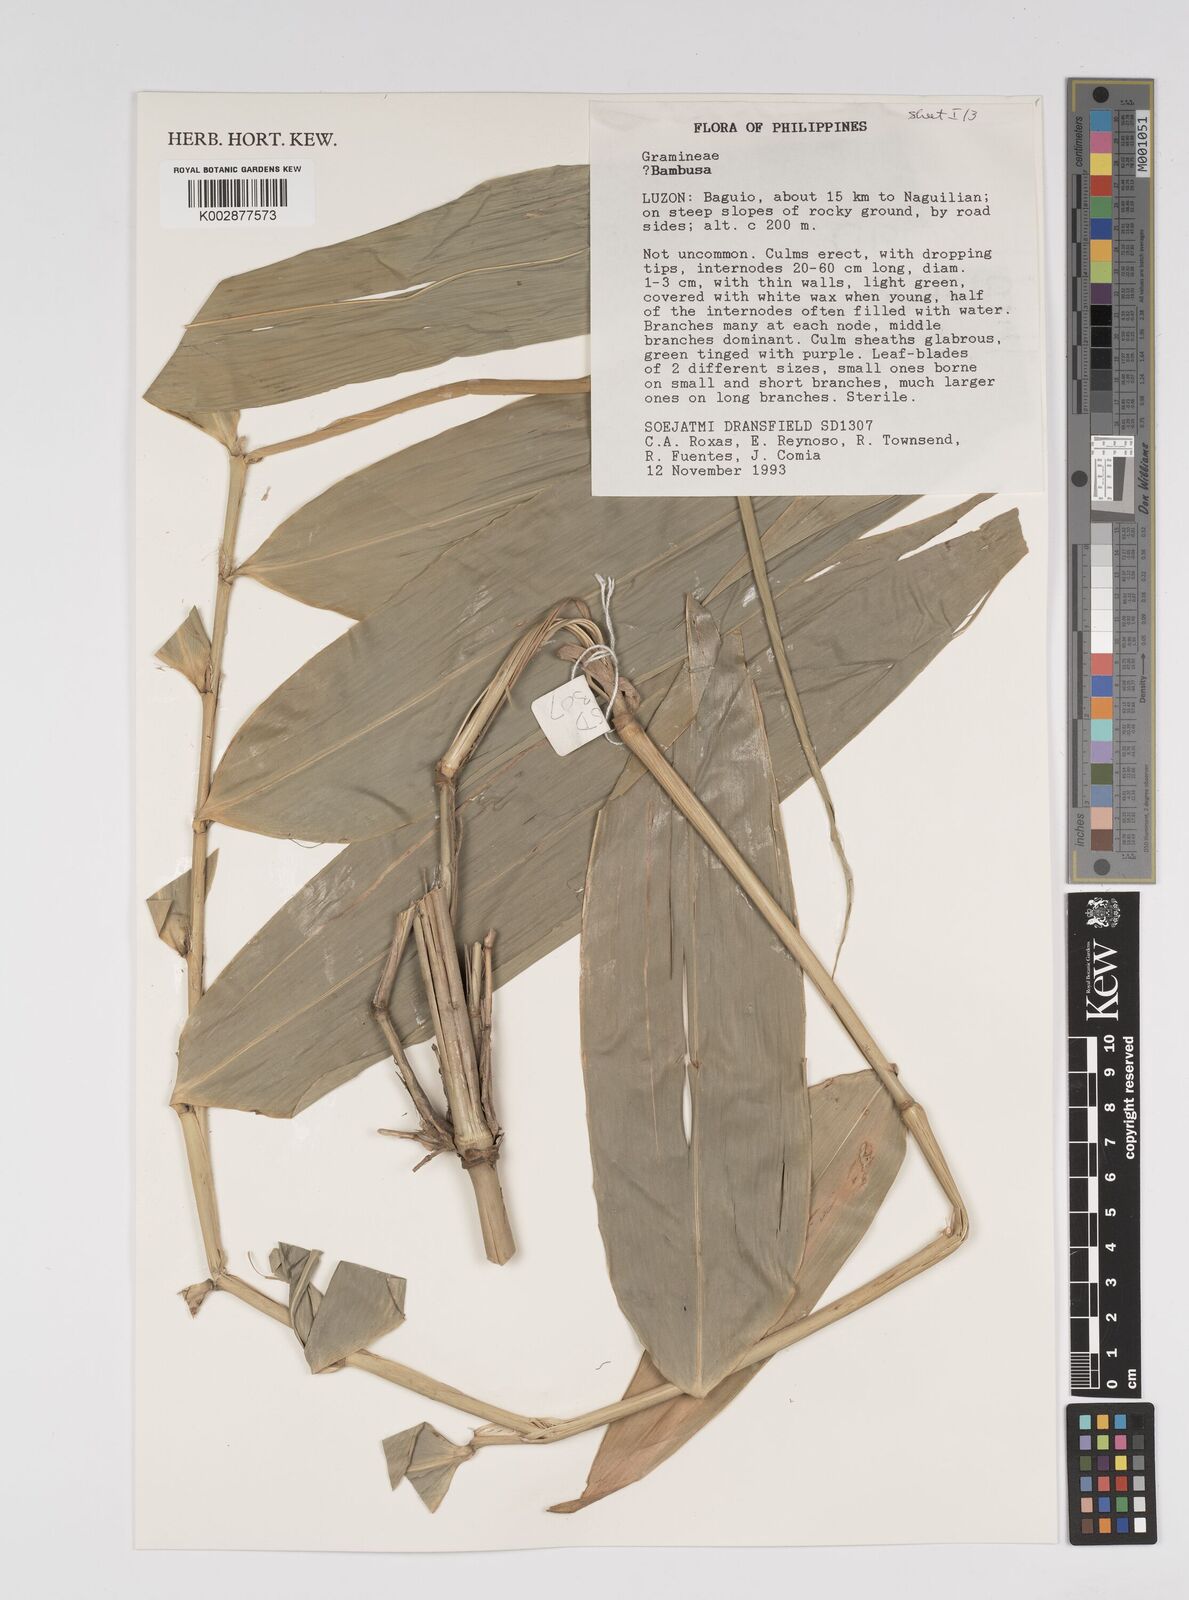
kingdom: Plantae
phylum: Tracheophyta
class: Liliopsida
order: Poales
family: Poaceae
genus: Bambusa
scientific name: Bambusa
